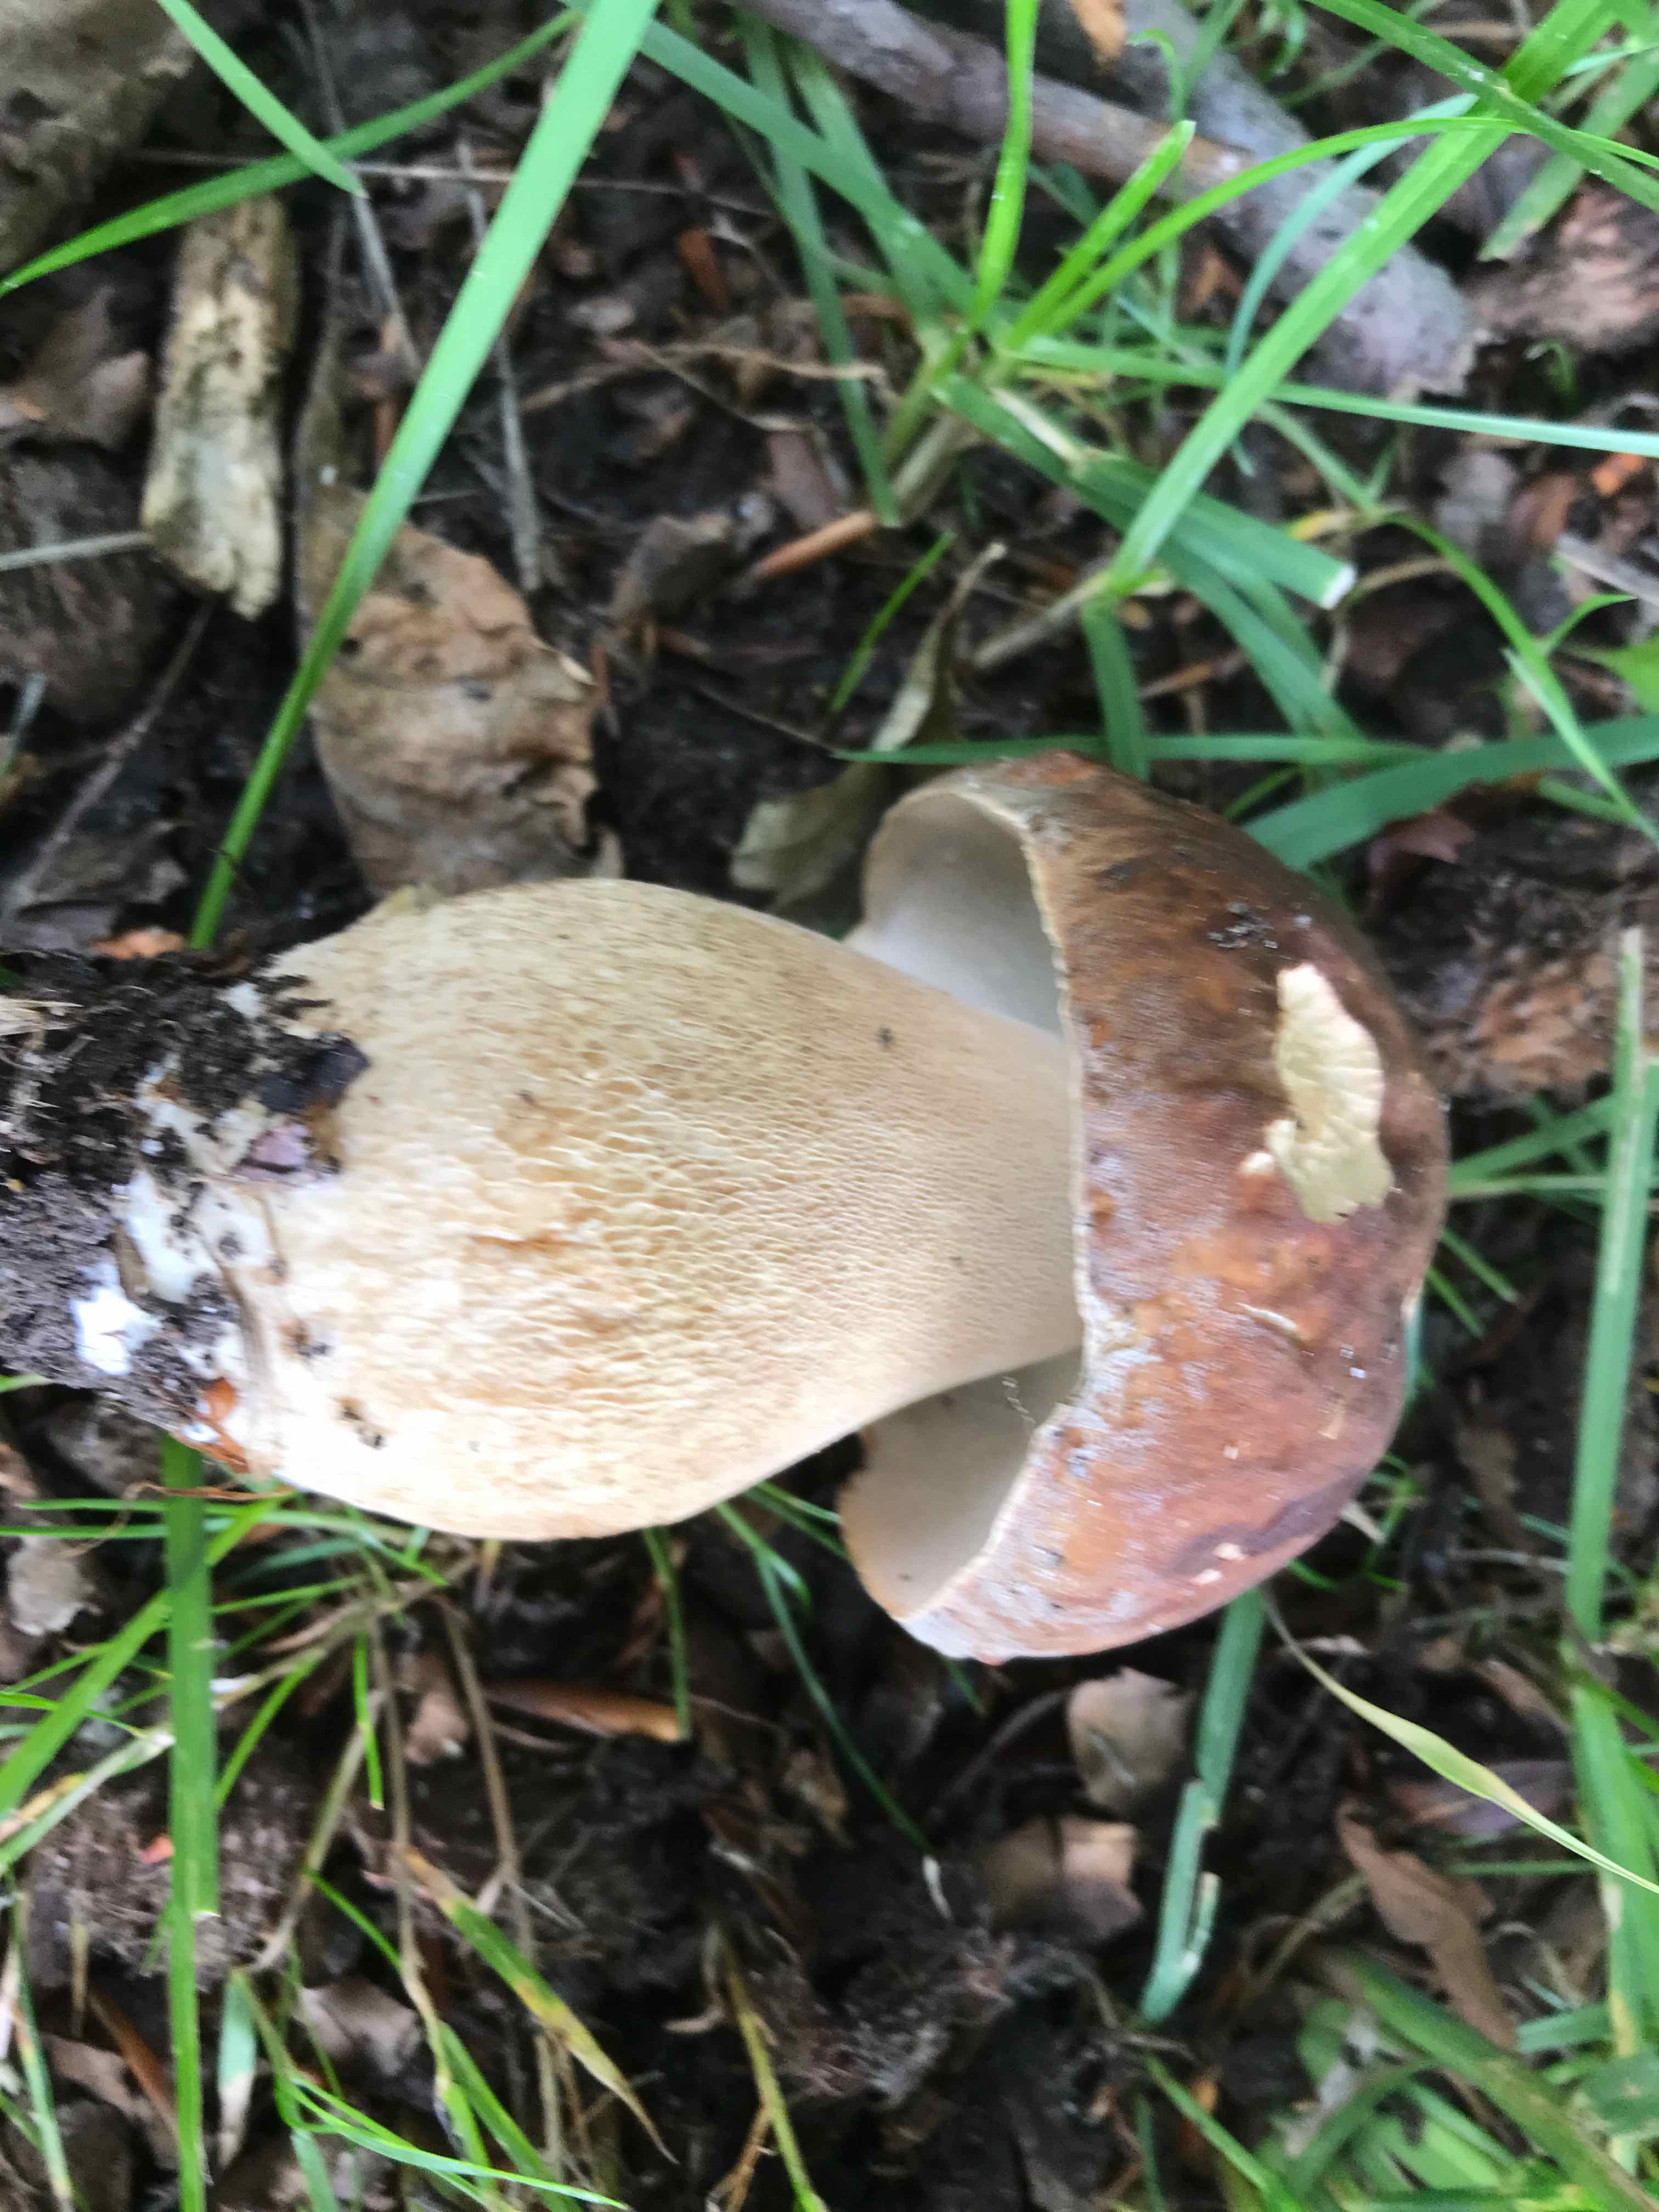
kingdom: Fungi
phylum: Basidiomycota
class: Agaricomycetes
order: Boletales
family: Boletaceae
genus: Boletus
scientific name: Boletus reticulatus
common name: sommer-rørhat
